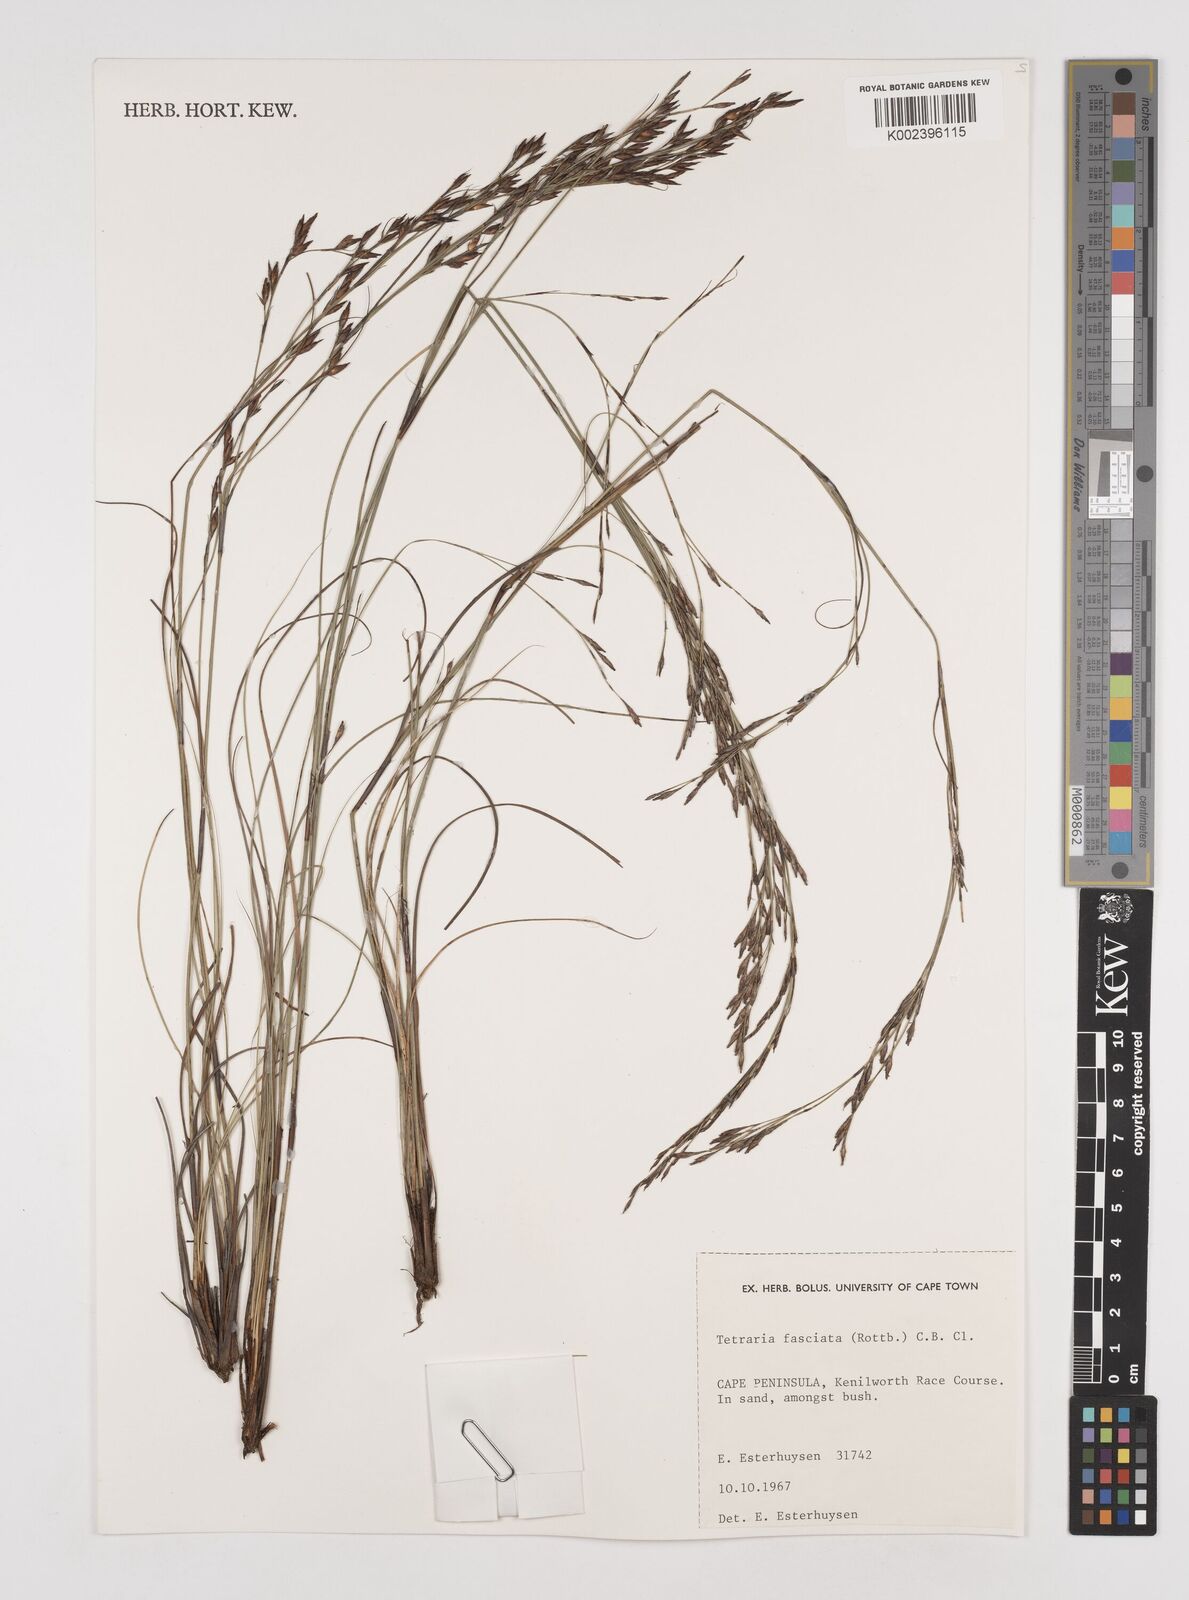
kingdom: Plantae
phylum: Tracheophyta
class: Liliopsida
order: Poales
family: Cyperaceae
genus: Tetraria
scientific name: Tetraria fasciata
